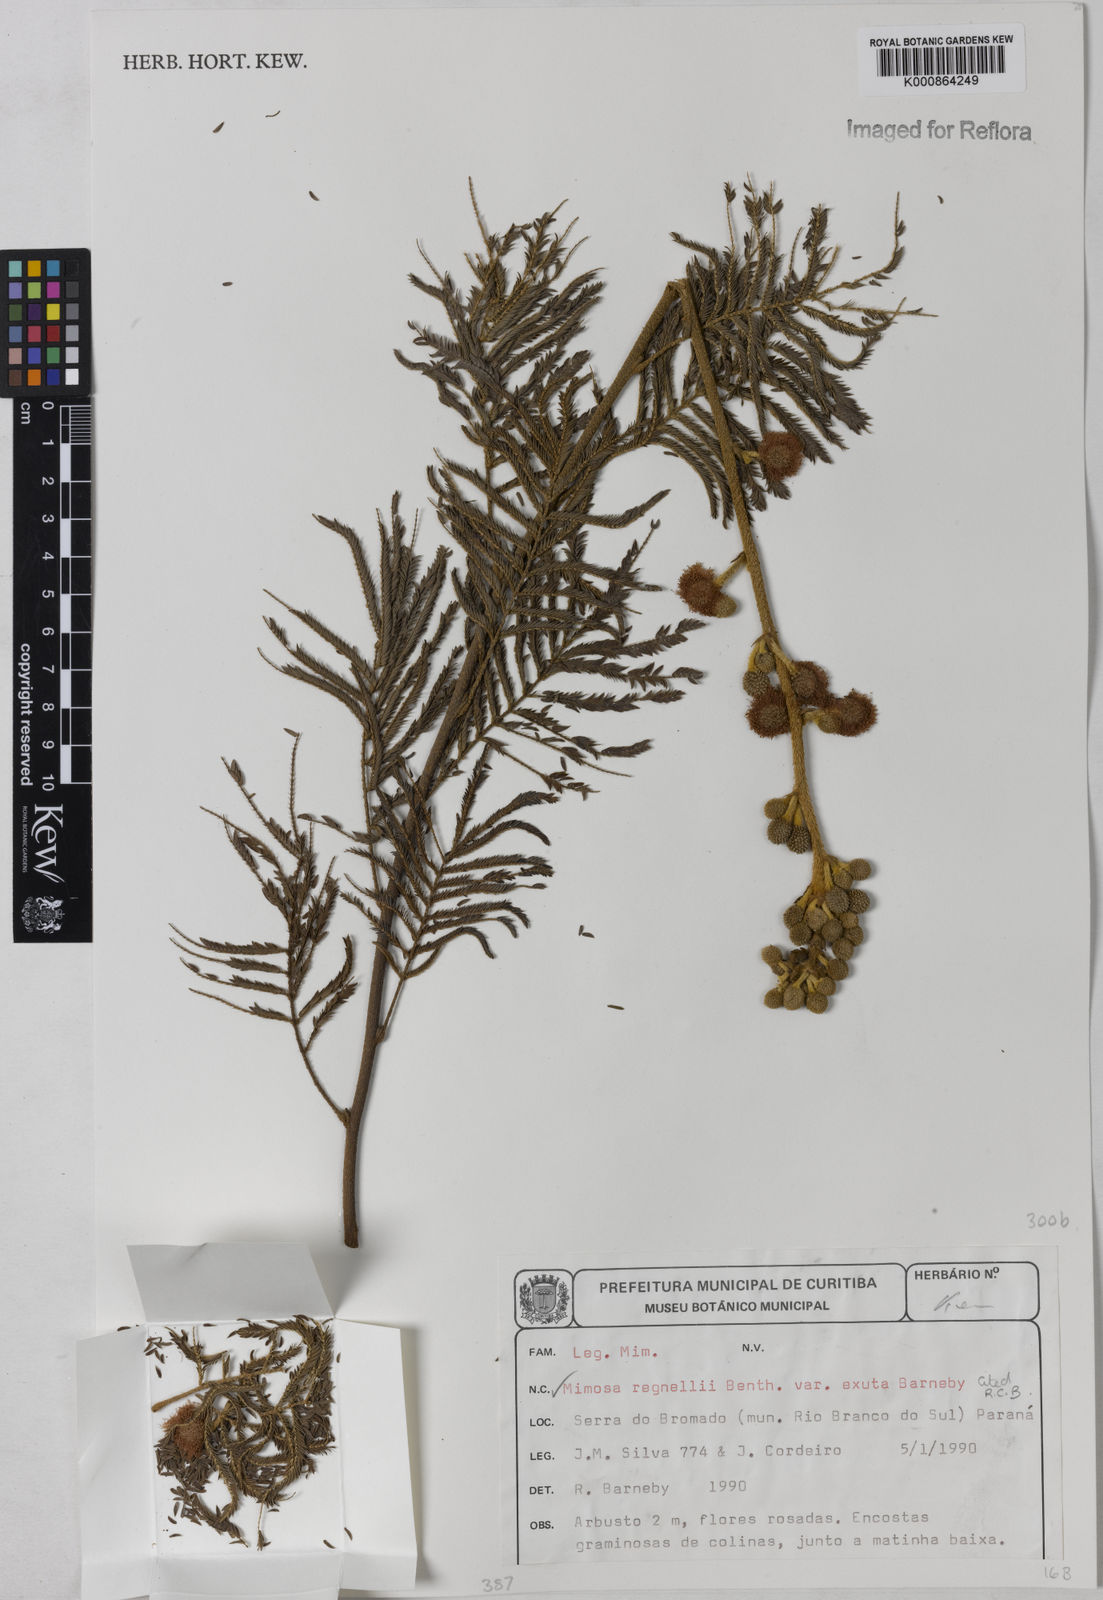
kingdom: Plantae
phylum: Tracheophyta
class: Magnoliopsida
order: Fabales
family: Fabaceae
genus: Mimosa
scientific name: Mimosa regnellii
